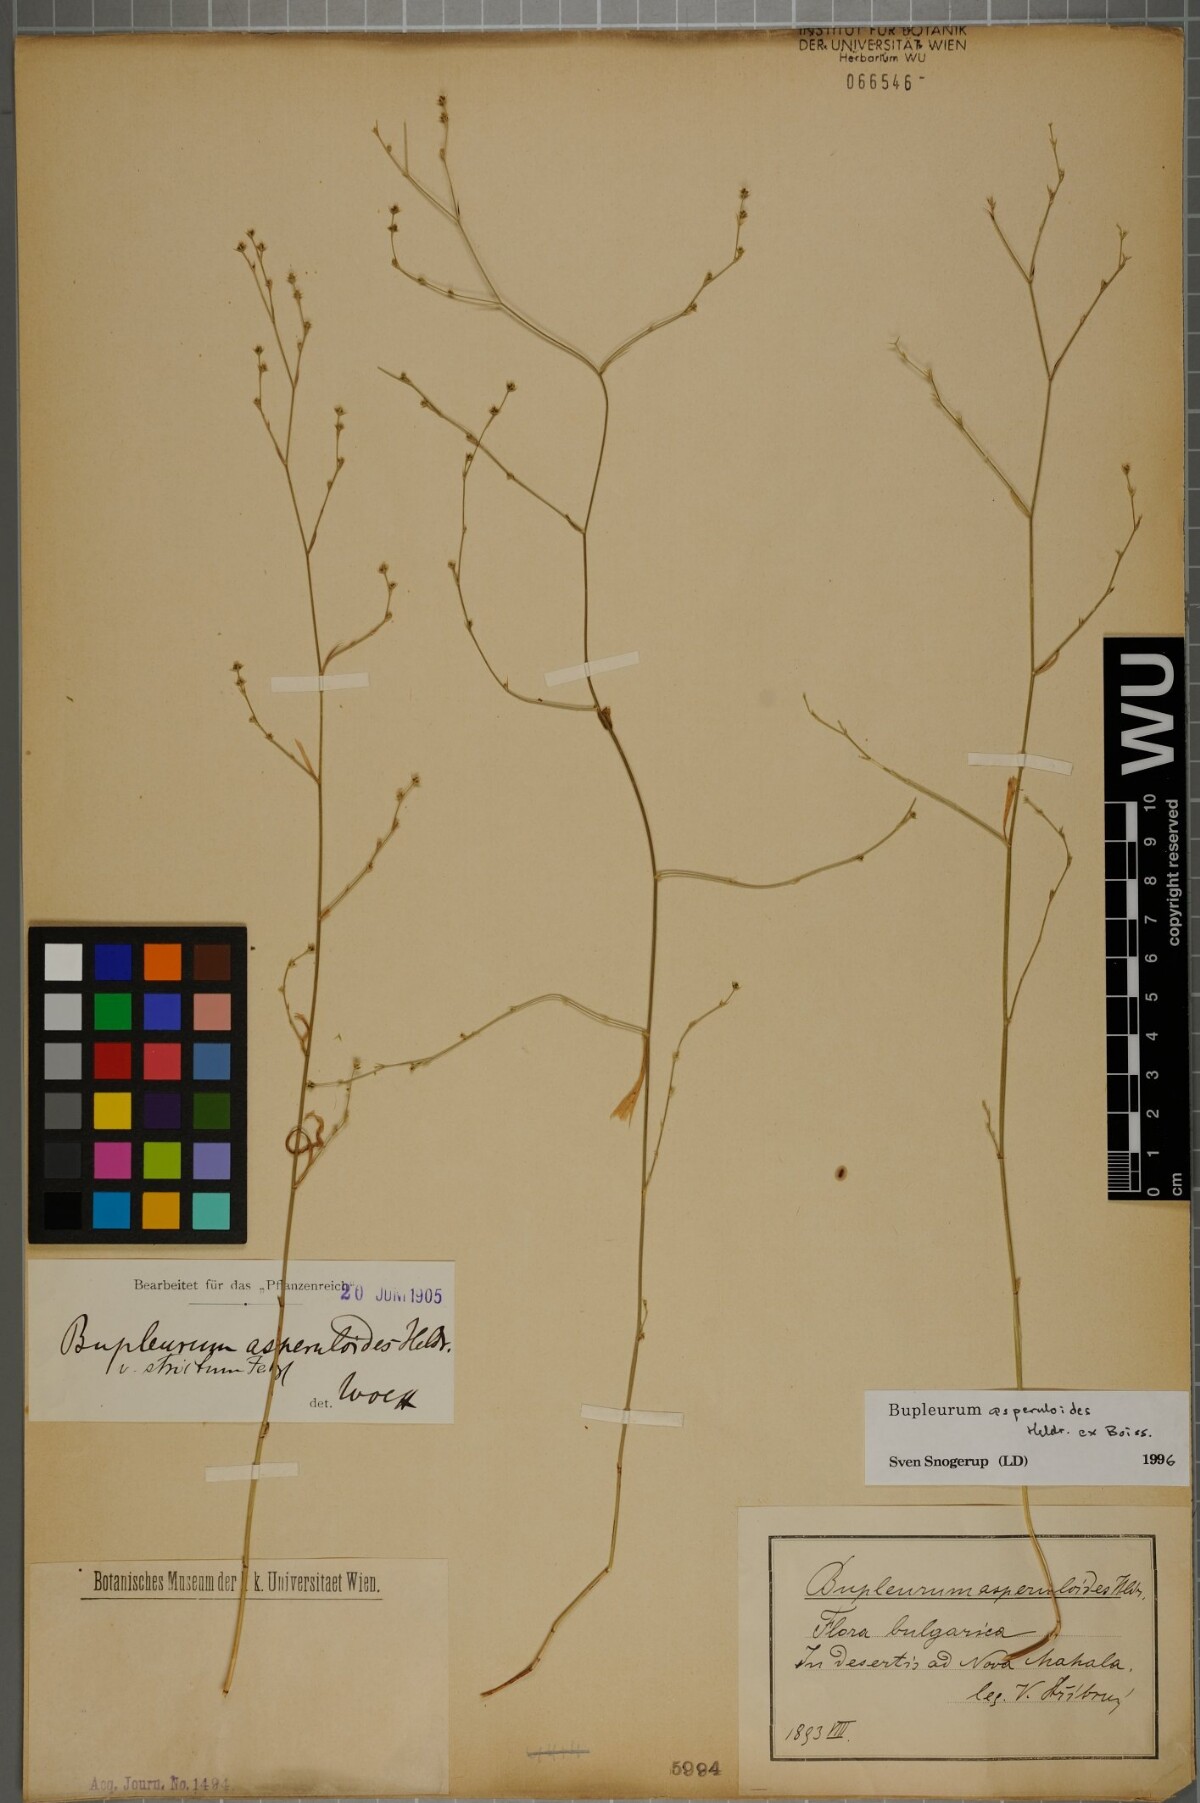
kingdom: Plantae
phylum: Tracheophyta
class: Magnoliopsida
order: Apiales
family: Apiaceae
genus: Bupleurum
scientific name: Bupleurum asperuloides
